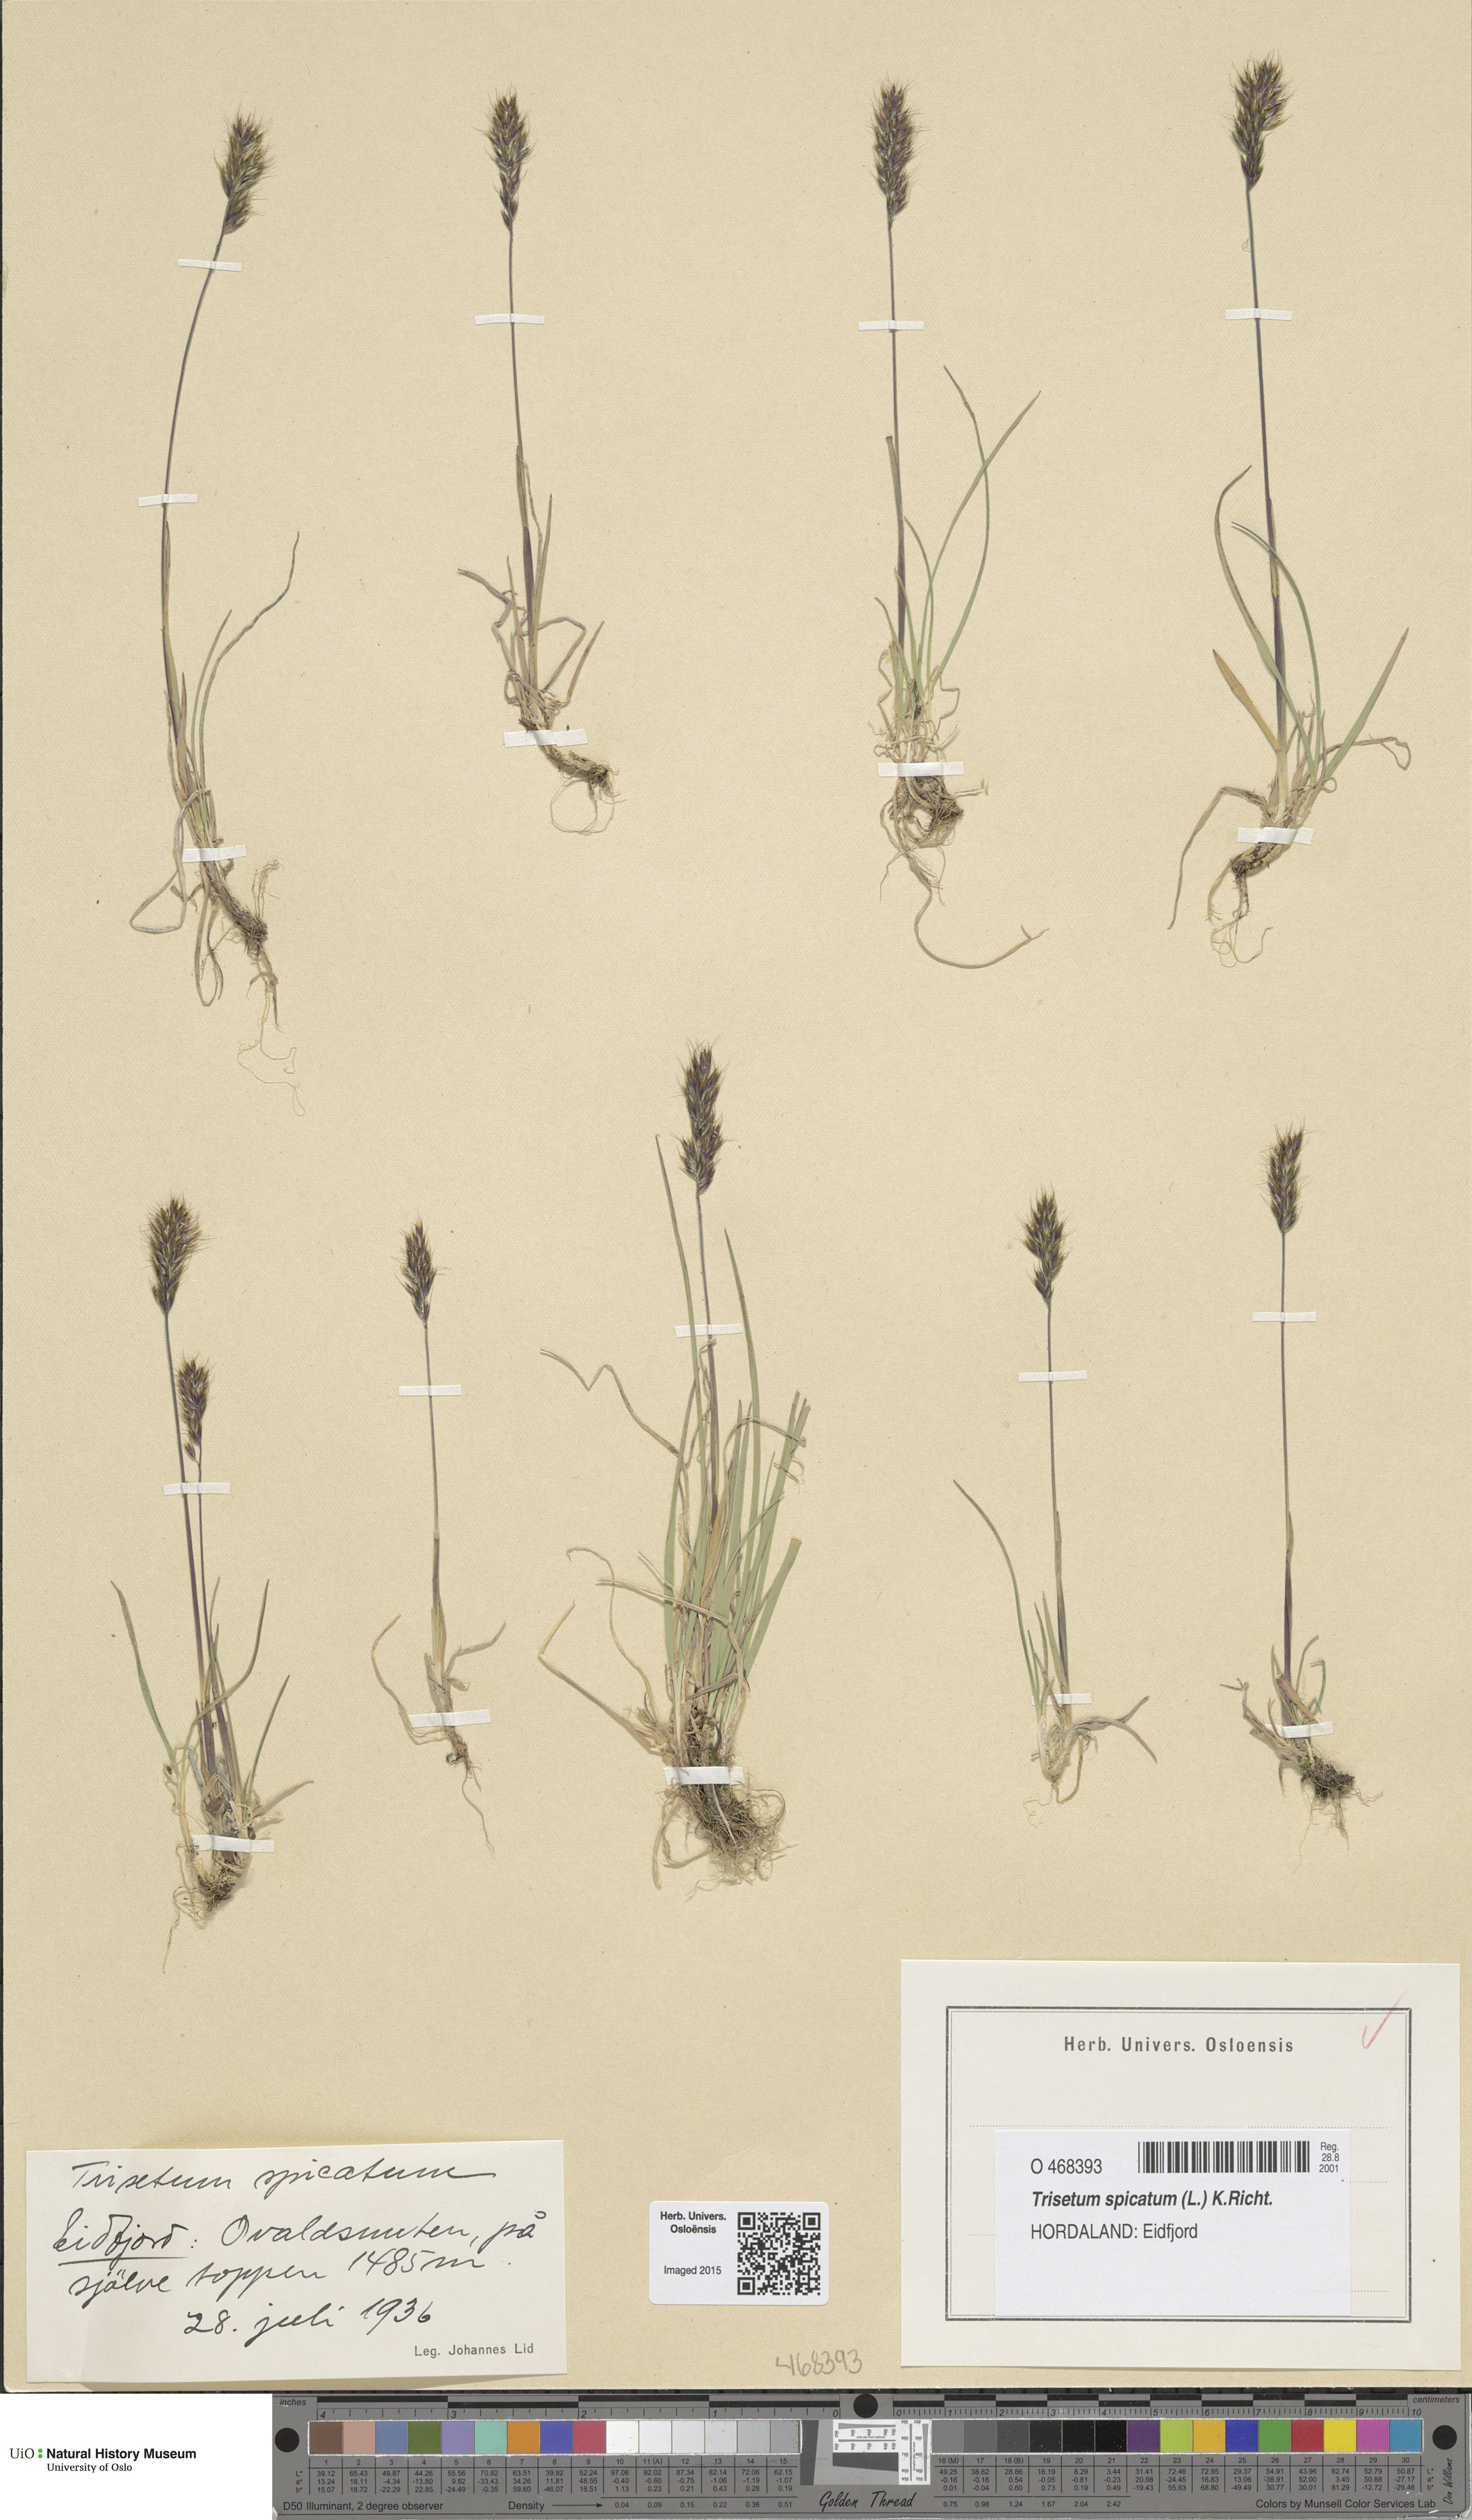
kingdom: Plantae
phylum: Tracheophyta
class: Liliopsida
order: Poales
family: Poaceae
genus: Koeleria
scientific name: Koeleria spicata
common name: Mountain trisetum
